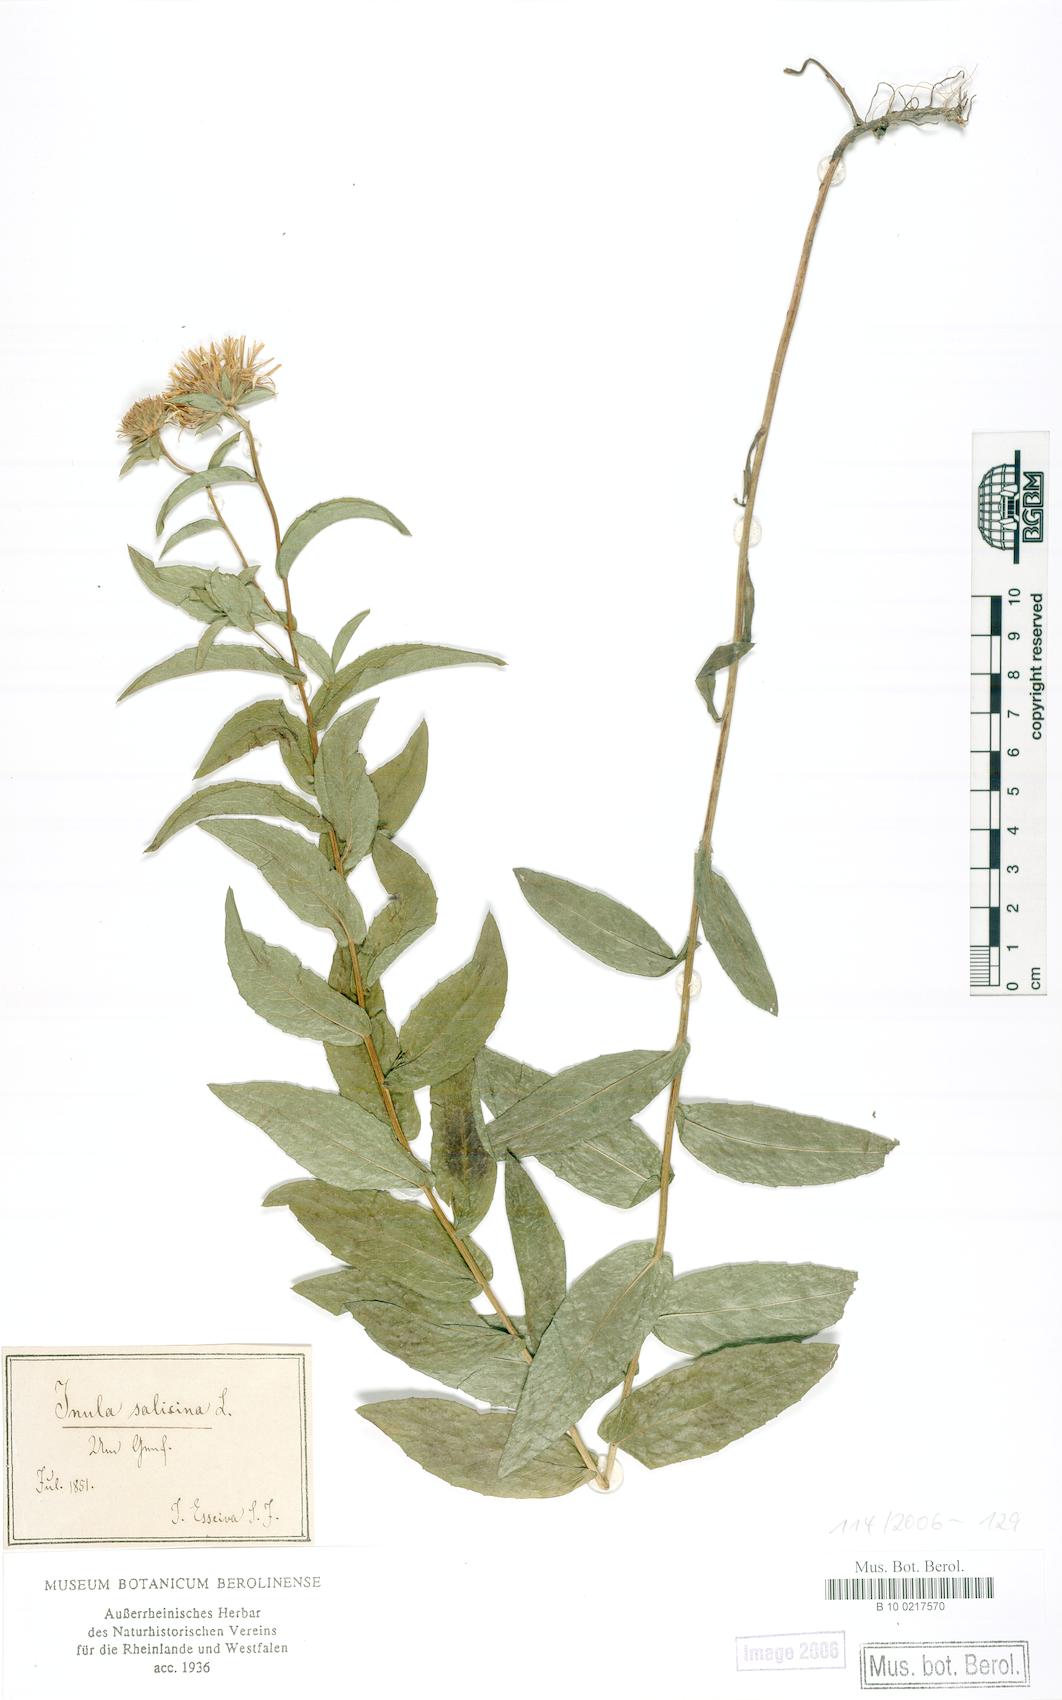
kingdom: Plantae
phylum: Tracheophyta
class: Magnoliopsida
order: Asterales
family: Asteraceae
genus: Pentanema
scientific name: Pentanema salicinum
